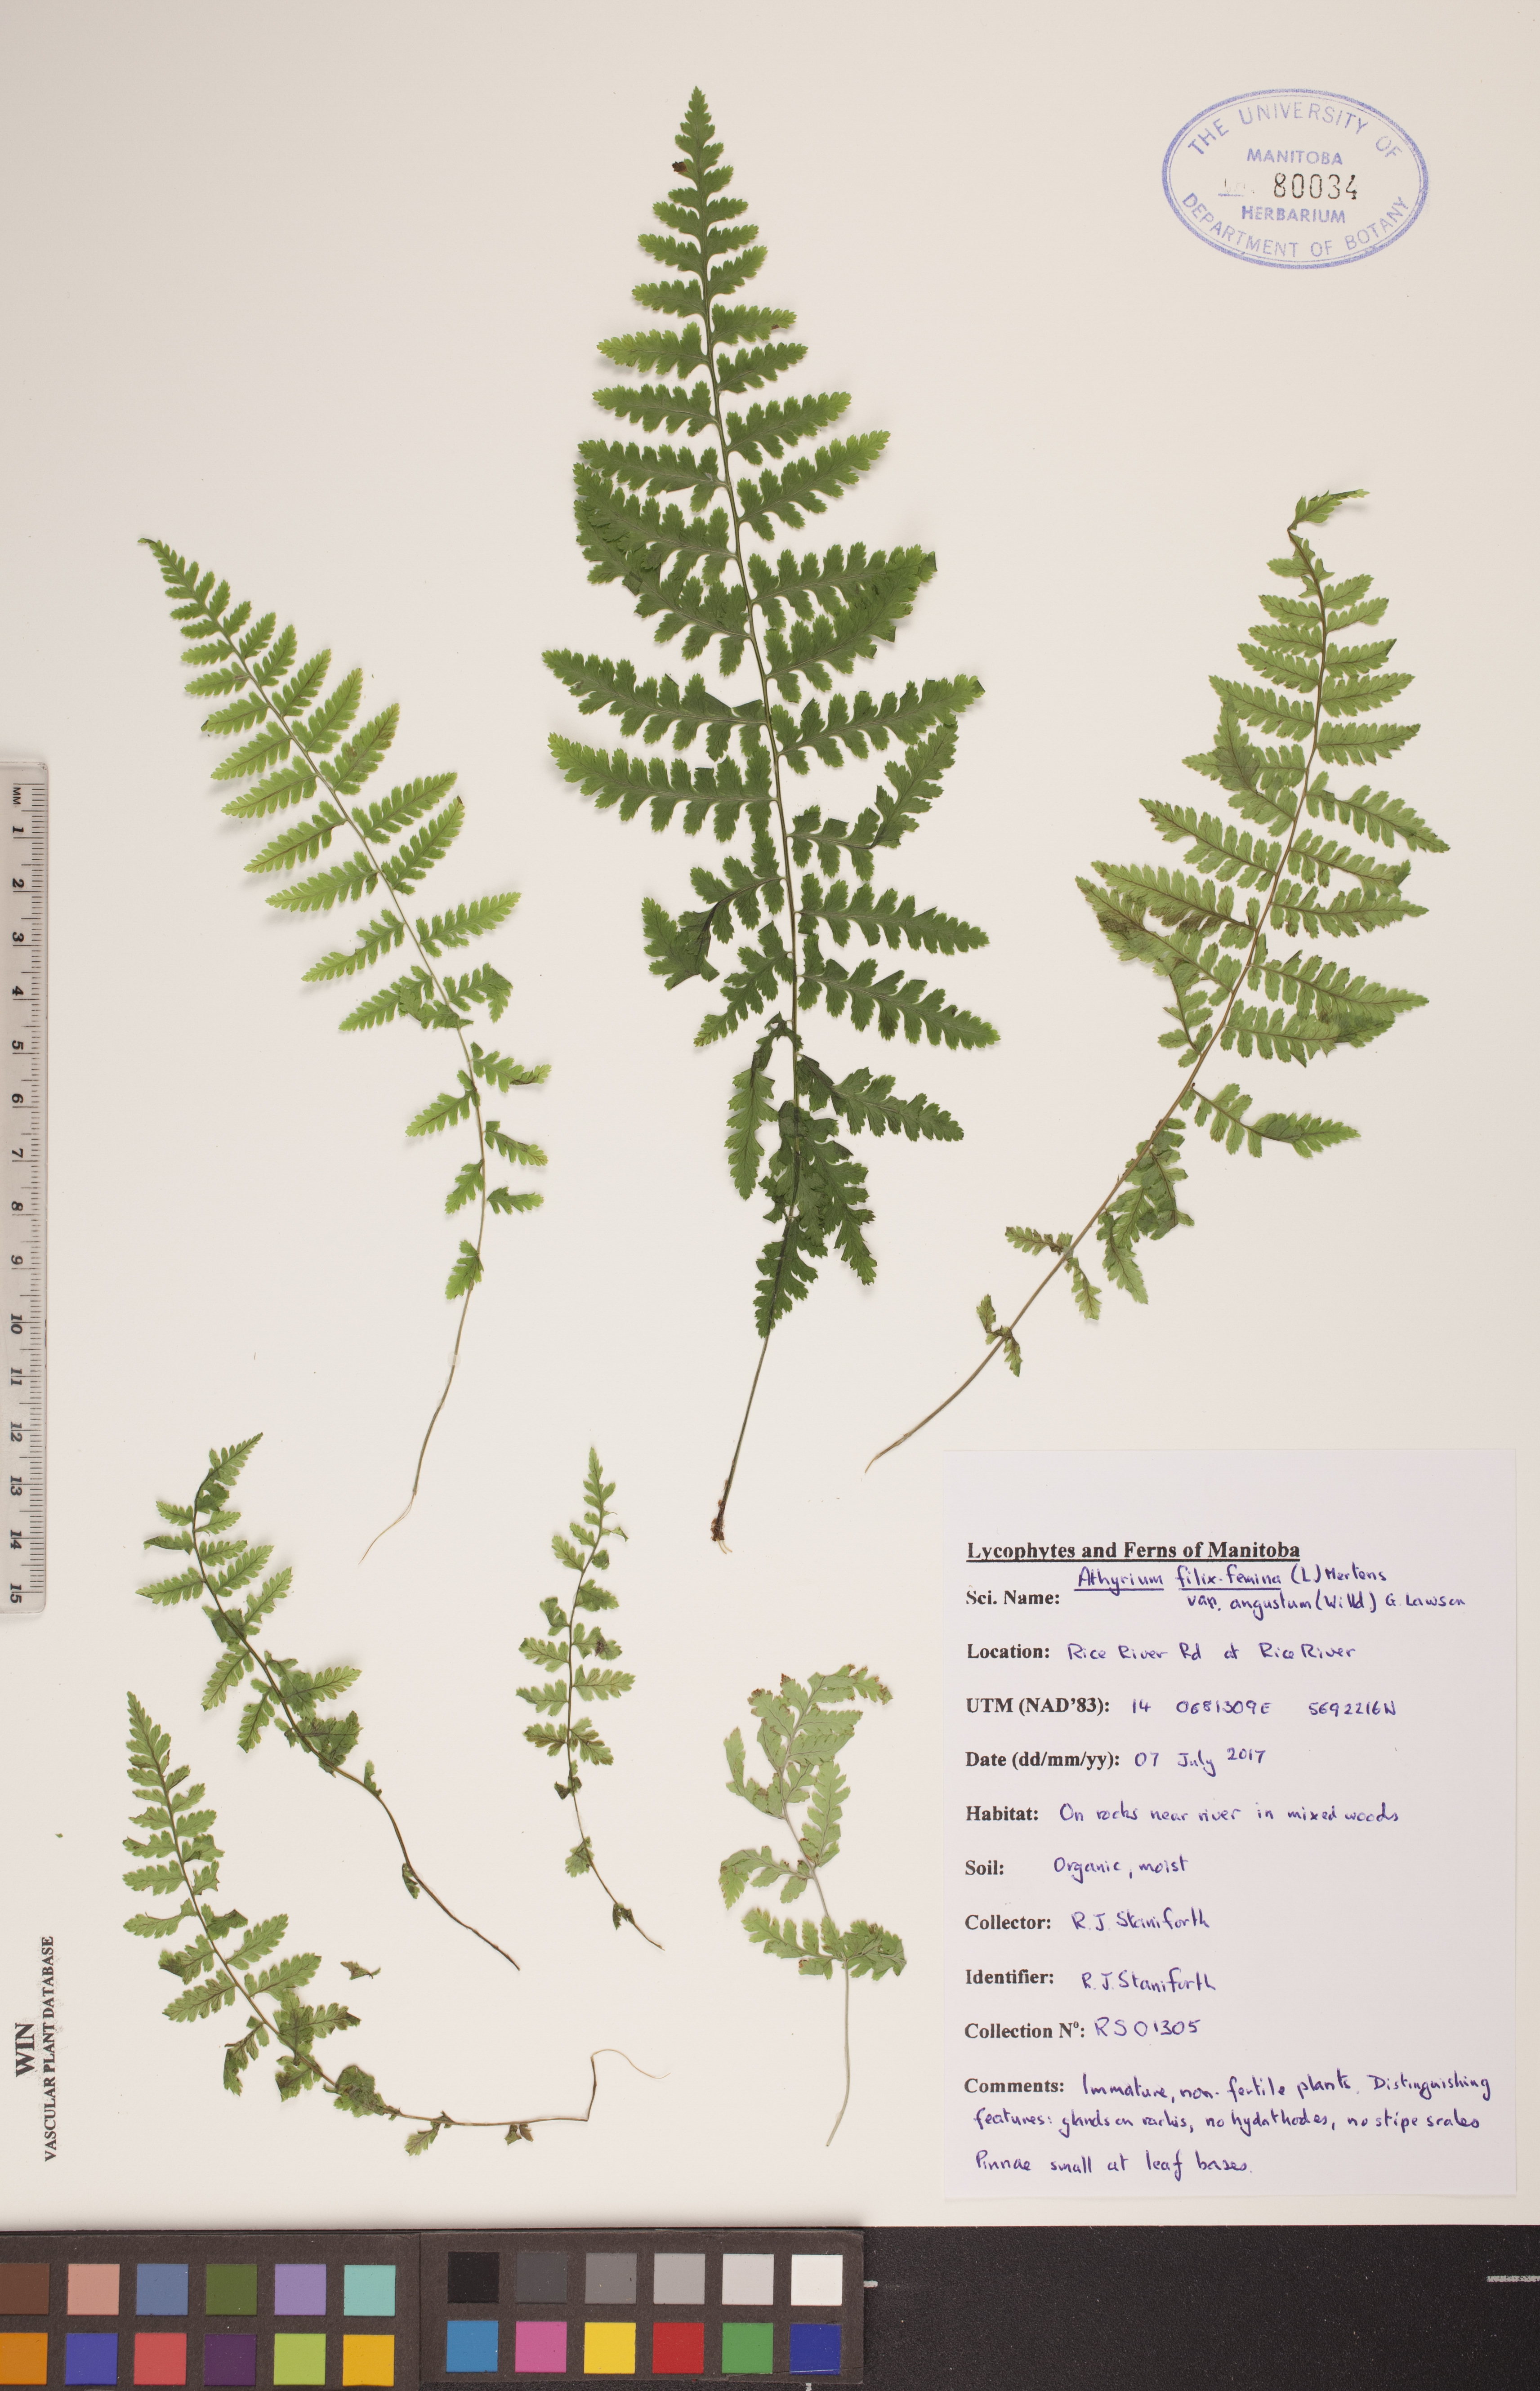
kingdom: Plantae
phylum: Tracheophyta
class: Polypodiopsida
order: Polypodiales
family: Athyriaceae
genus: Athyrium
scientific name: Athyrium angustum
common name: Northern lady fern
